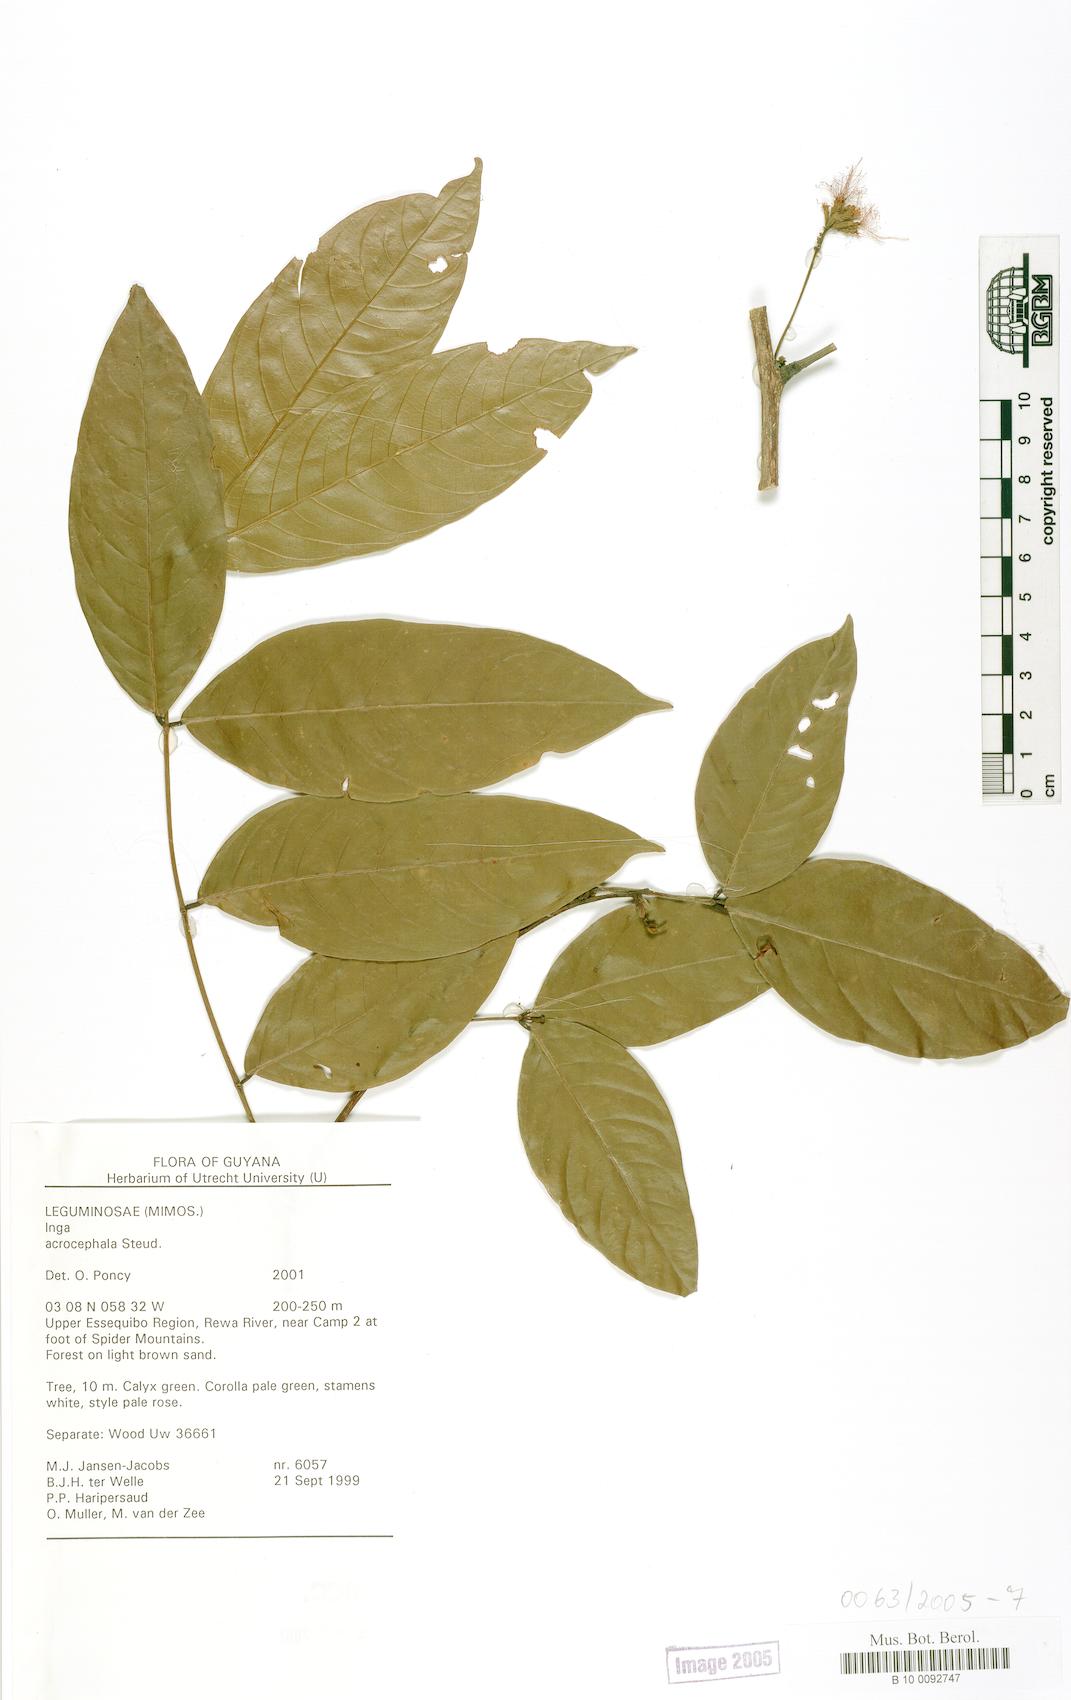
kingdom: Plantae
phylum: Tracheophyta
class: Magnoliopsida
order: Fabales
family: Fabaceae
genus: Inga
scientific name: Inga
